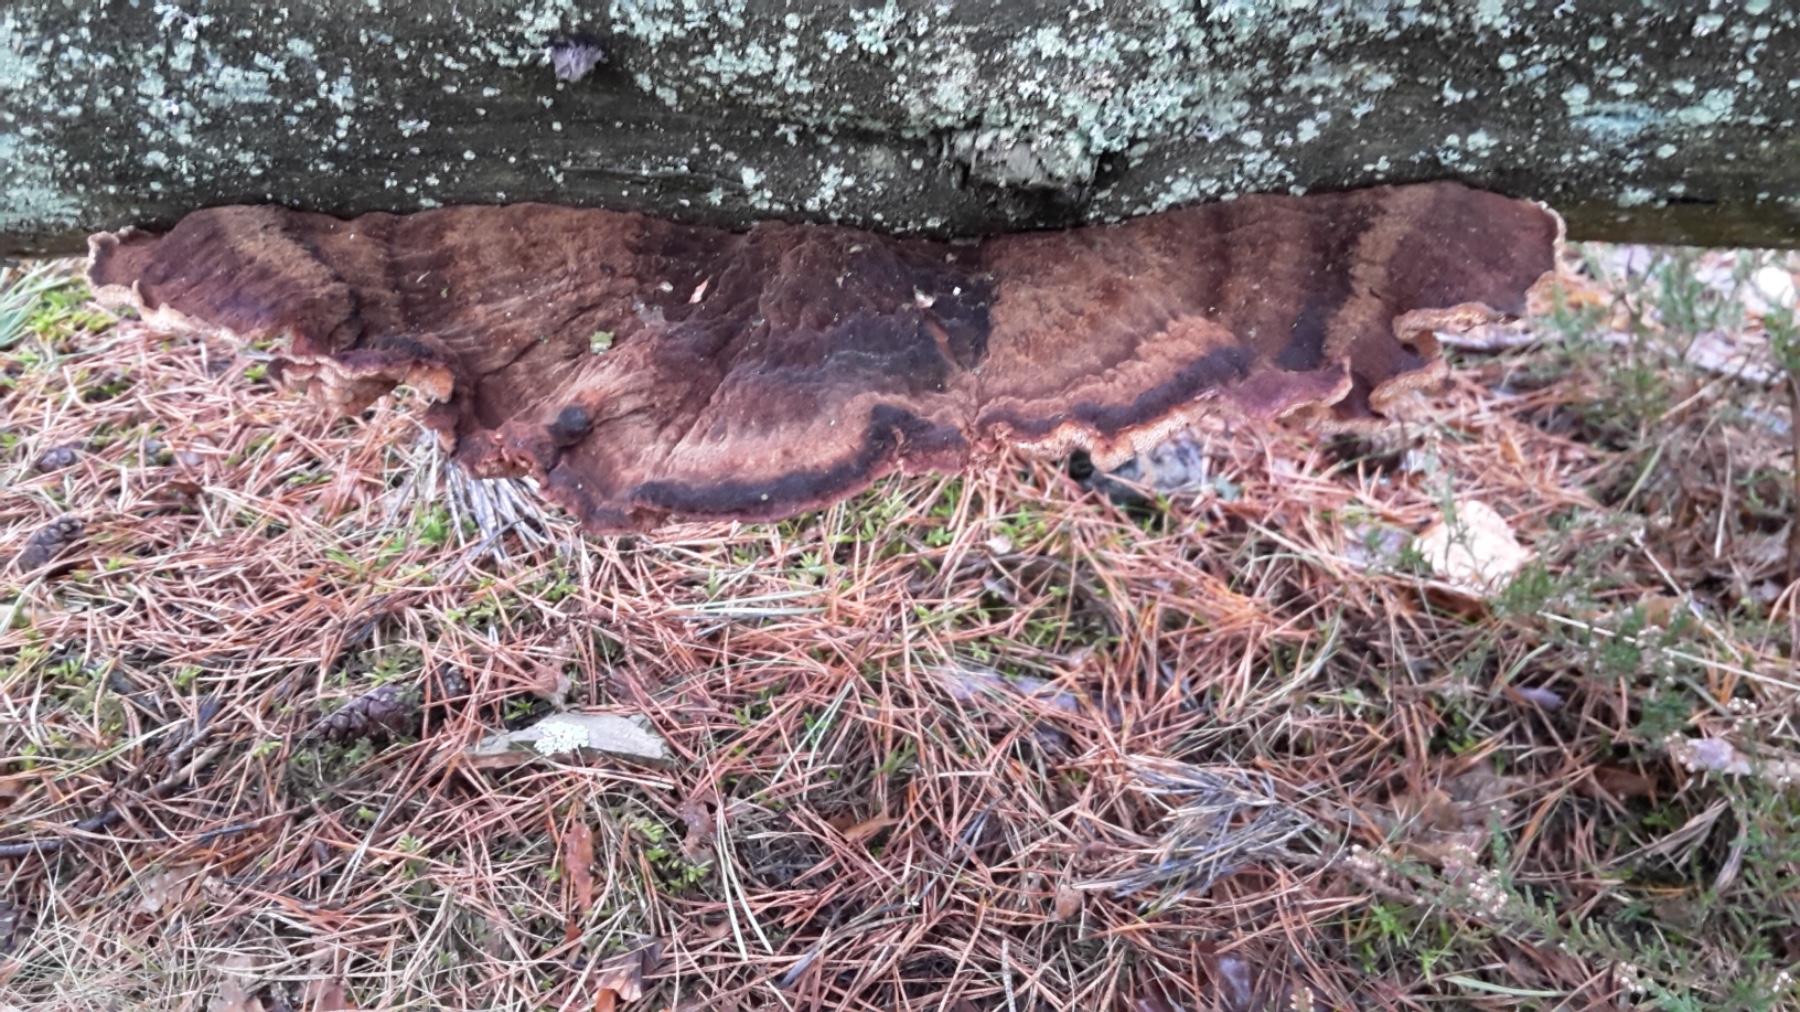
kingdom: Fungi
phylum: Basidiomycota
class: Agaricomycetes
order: Polyporales
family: Ischnodermataceae
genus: Ischnoderma
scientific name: Ischnoderma benzoinum
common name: gran-tjæreporesvamp
